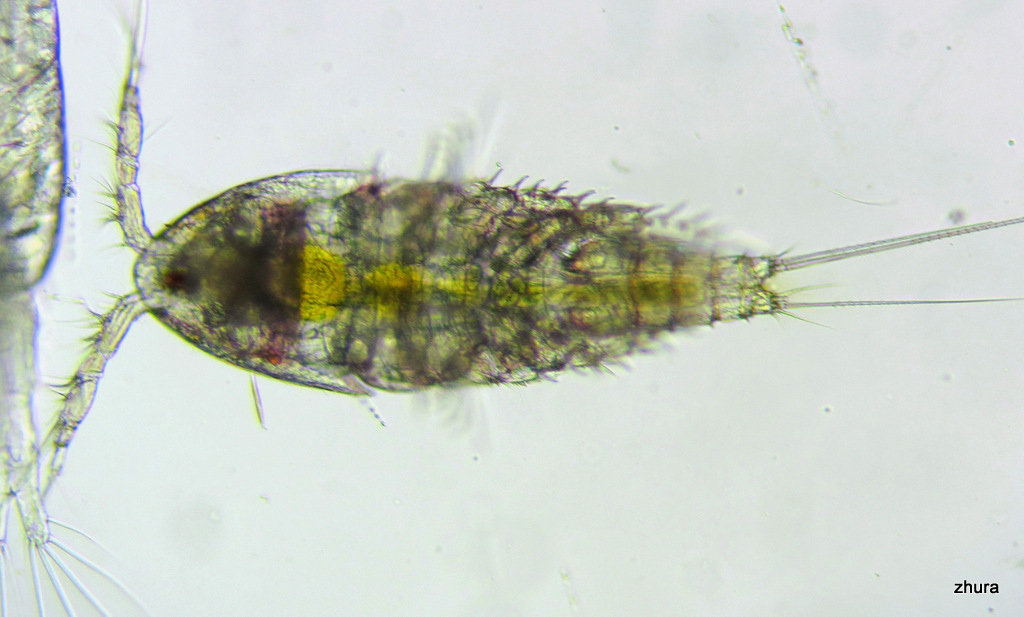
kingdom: Animalia
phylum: Arthropoda
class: Copepoda
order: Cyclopoida
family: Oncaeidae
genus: Oncaea
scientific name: Oncaea
